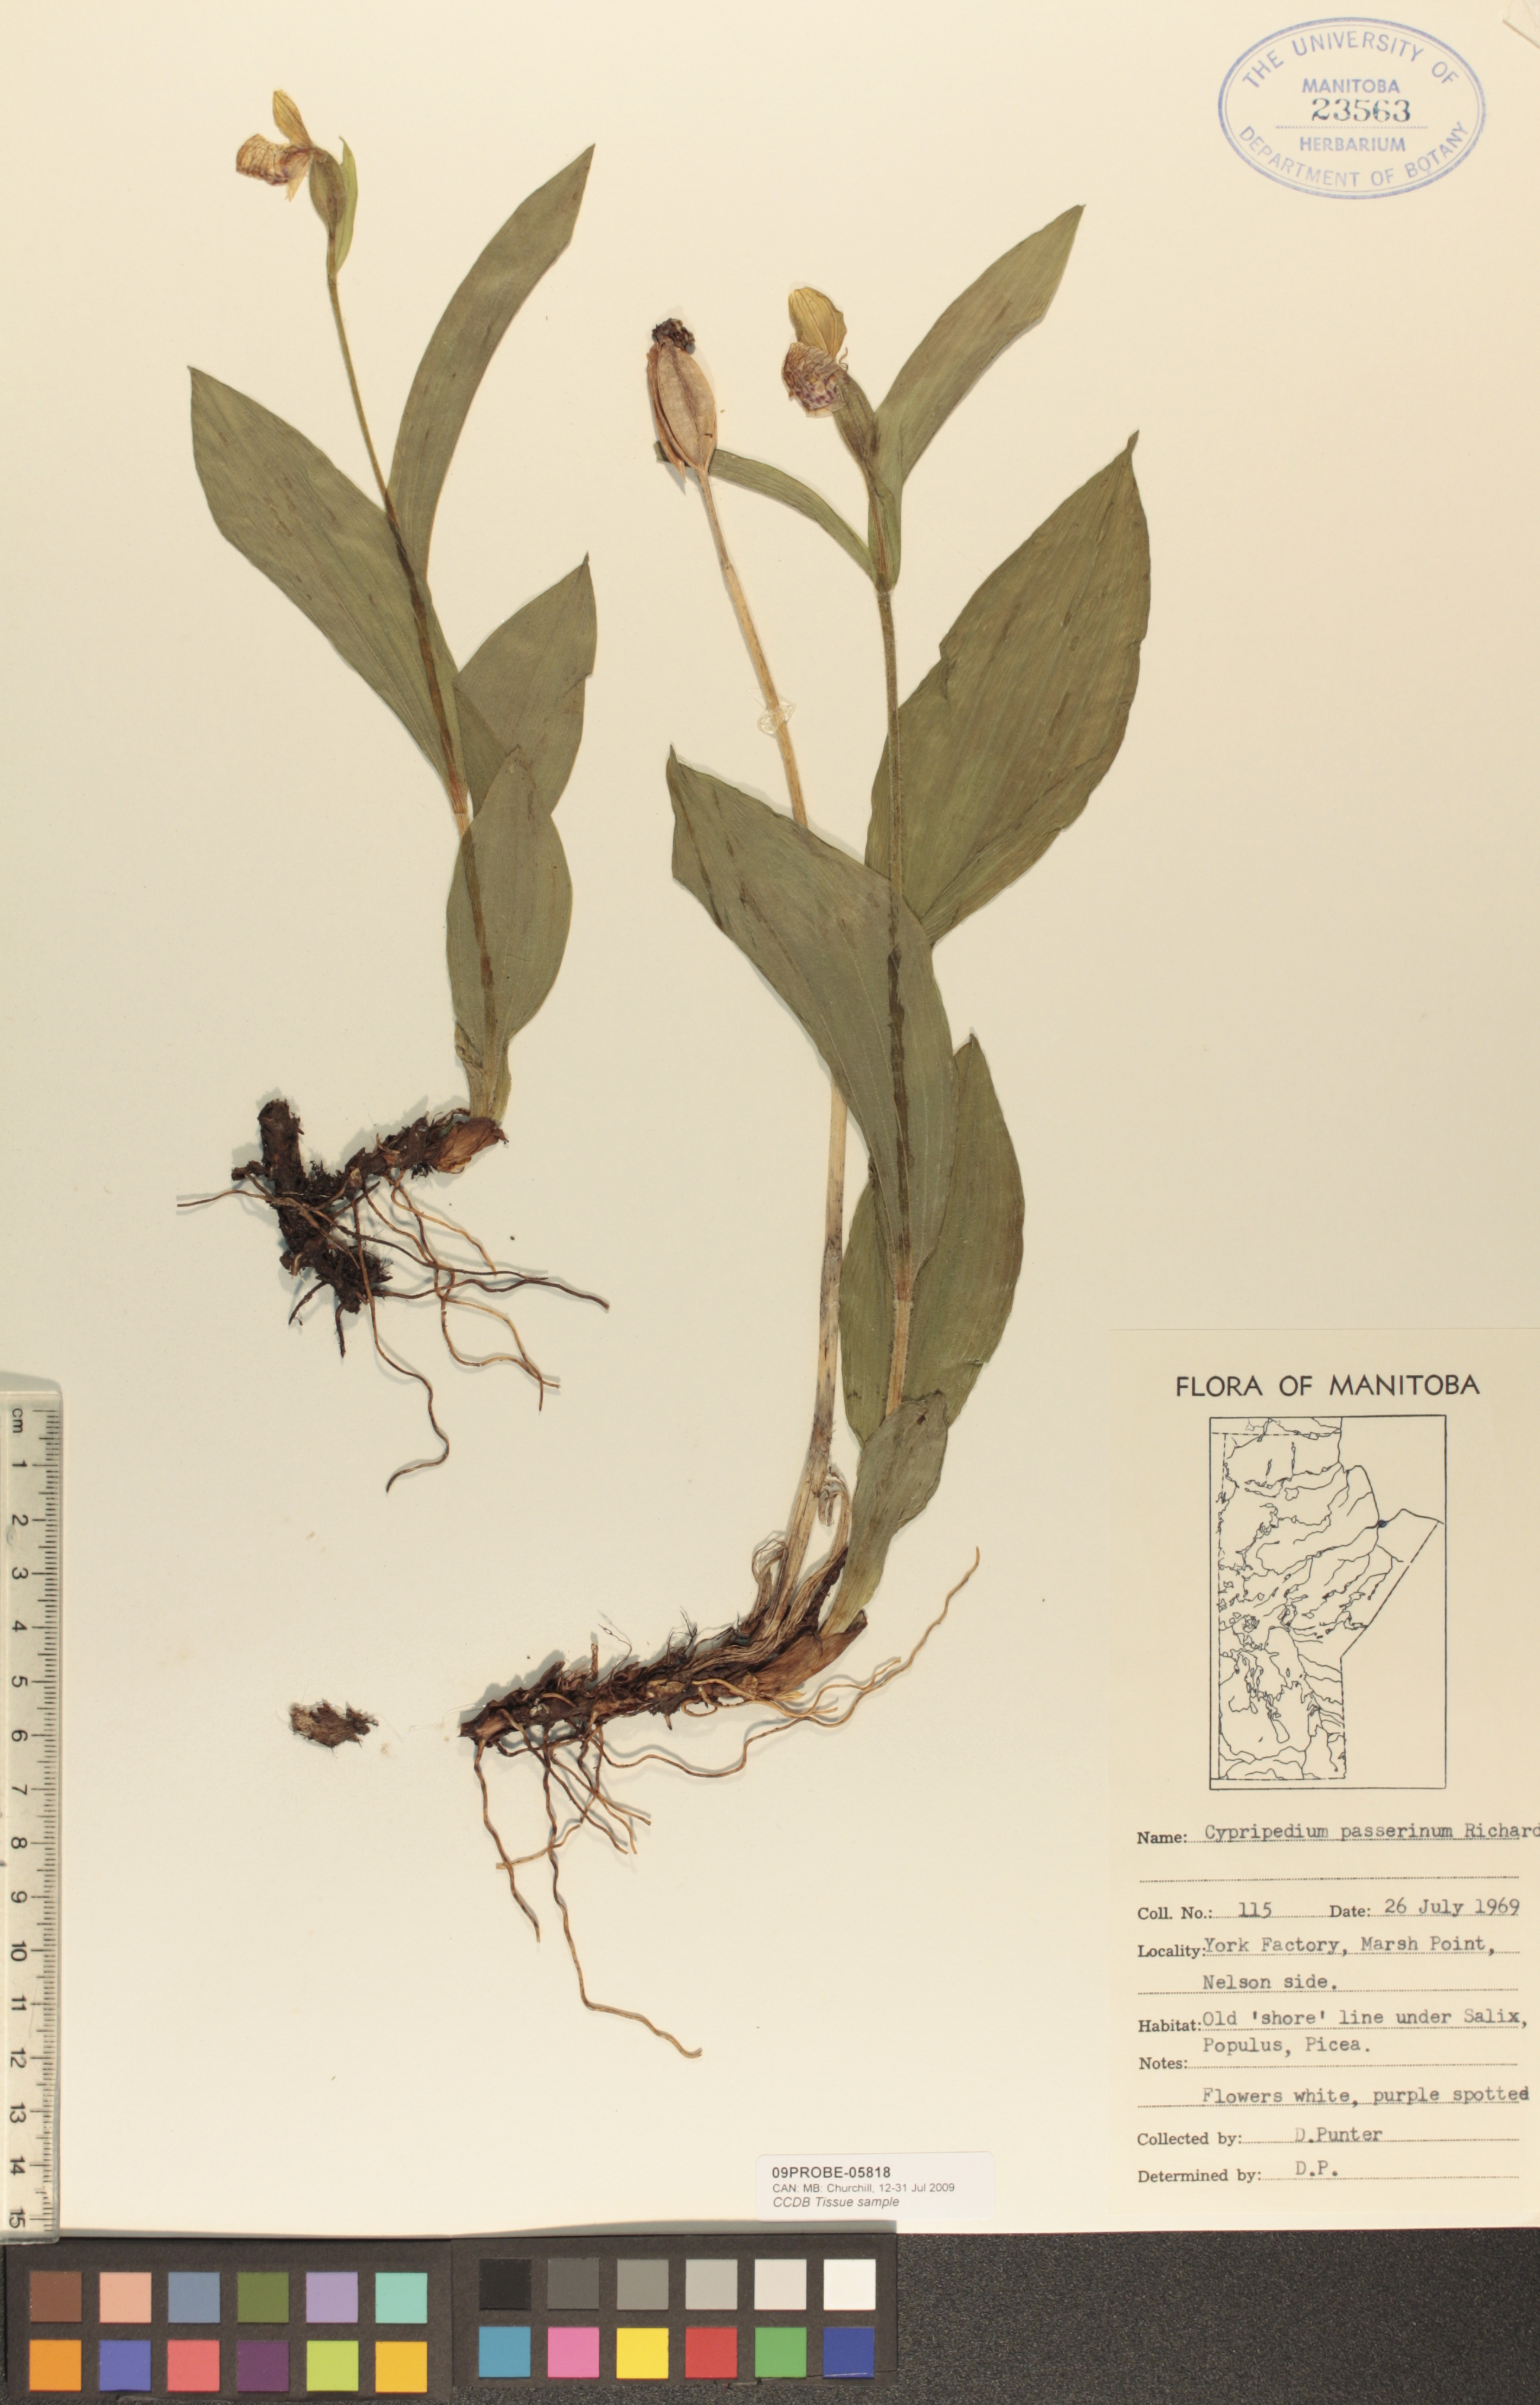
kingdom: Plantae
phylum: Tracheophyta
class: Liliopsida
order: Asparagales
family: Orchidaceae
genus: Cypripedium
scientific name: Cypripedium passerinum
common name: Sparrow's-egg lady's-slipper
